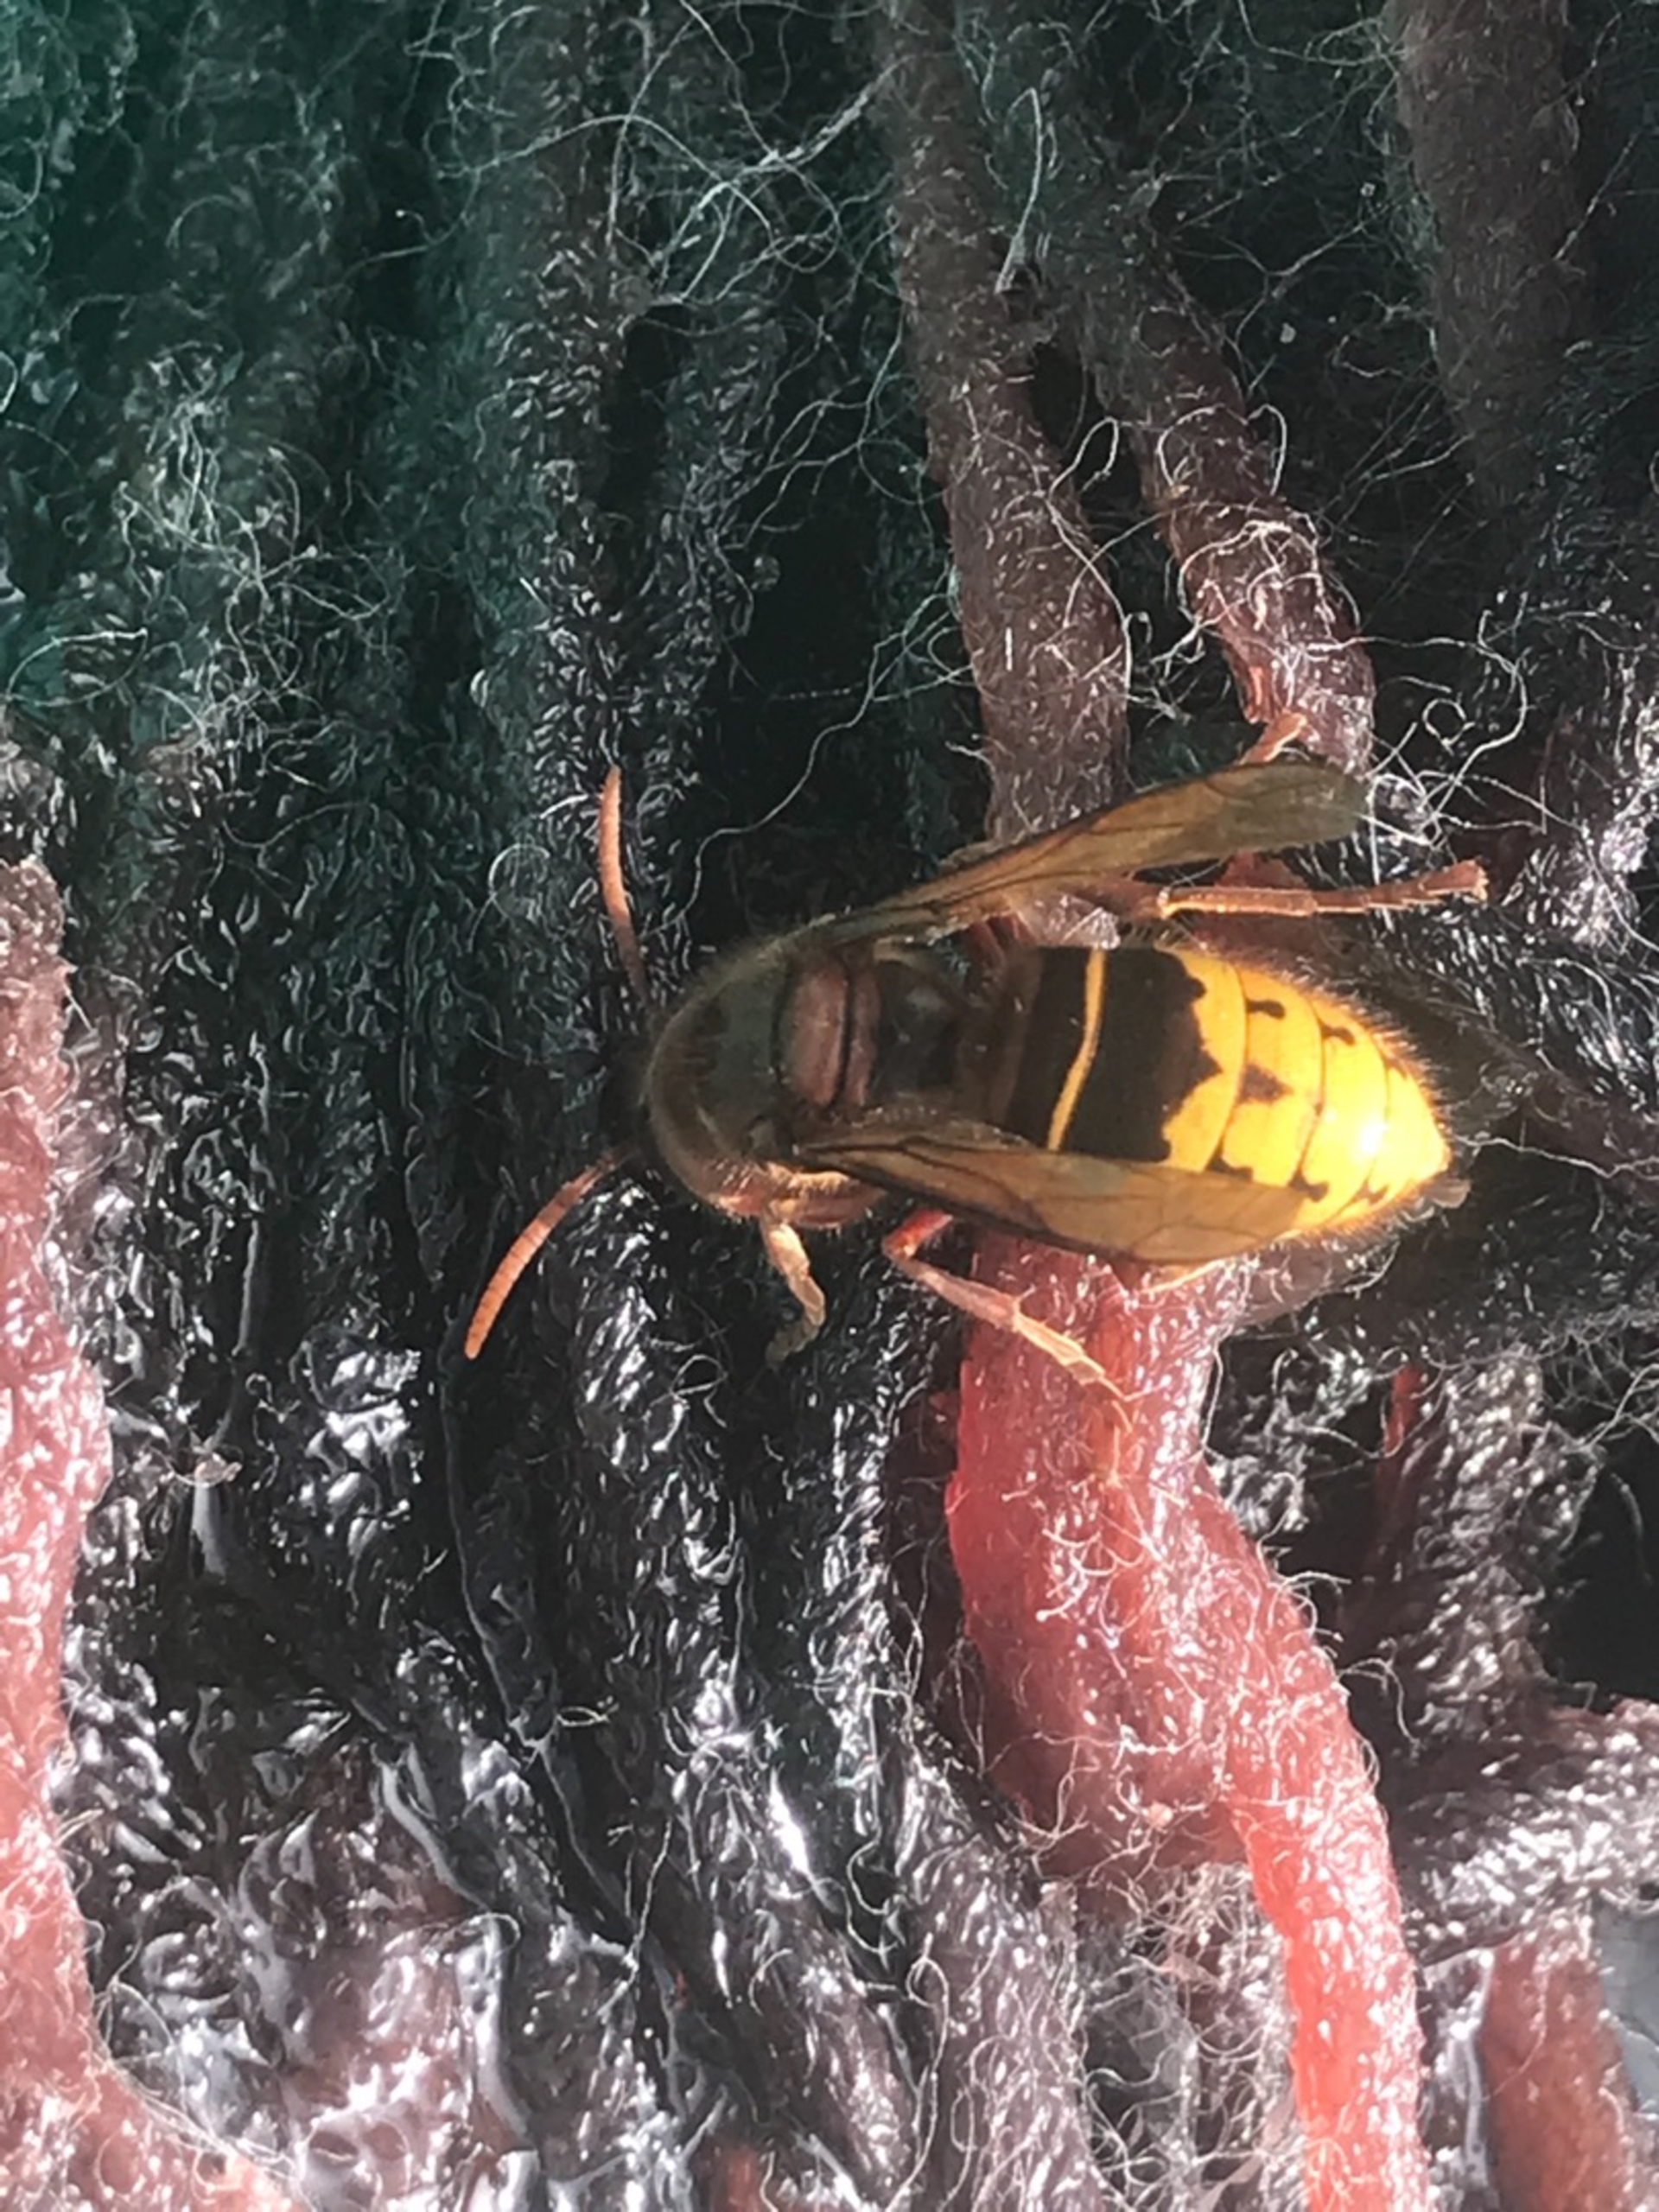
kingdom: Animalia
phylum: Arthropoda
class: Insecta
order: Hymenoptera
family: Vespidae
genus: Vespa
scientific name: Vespa crabro
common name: Stor gedehams
